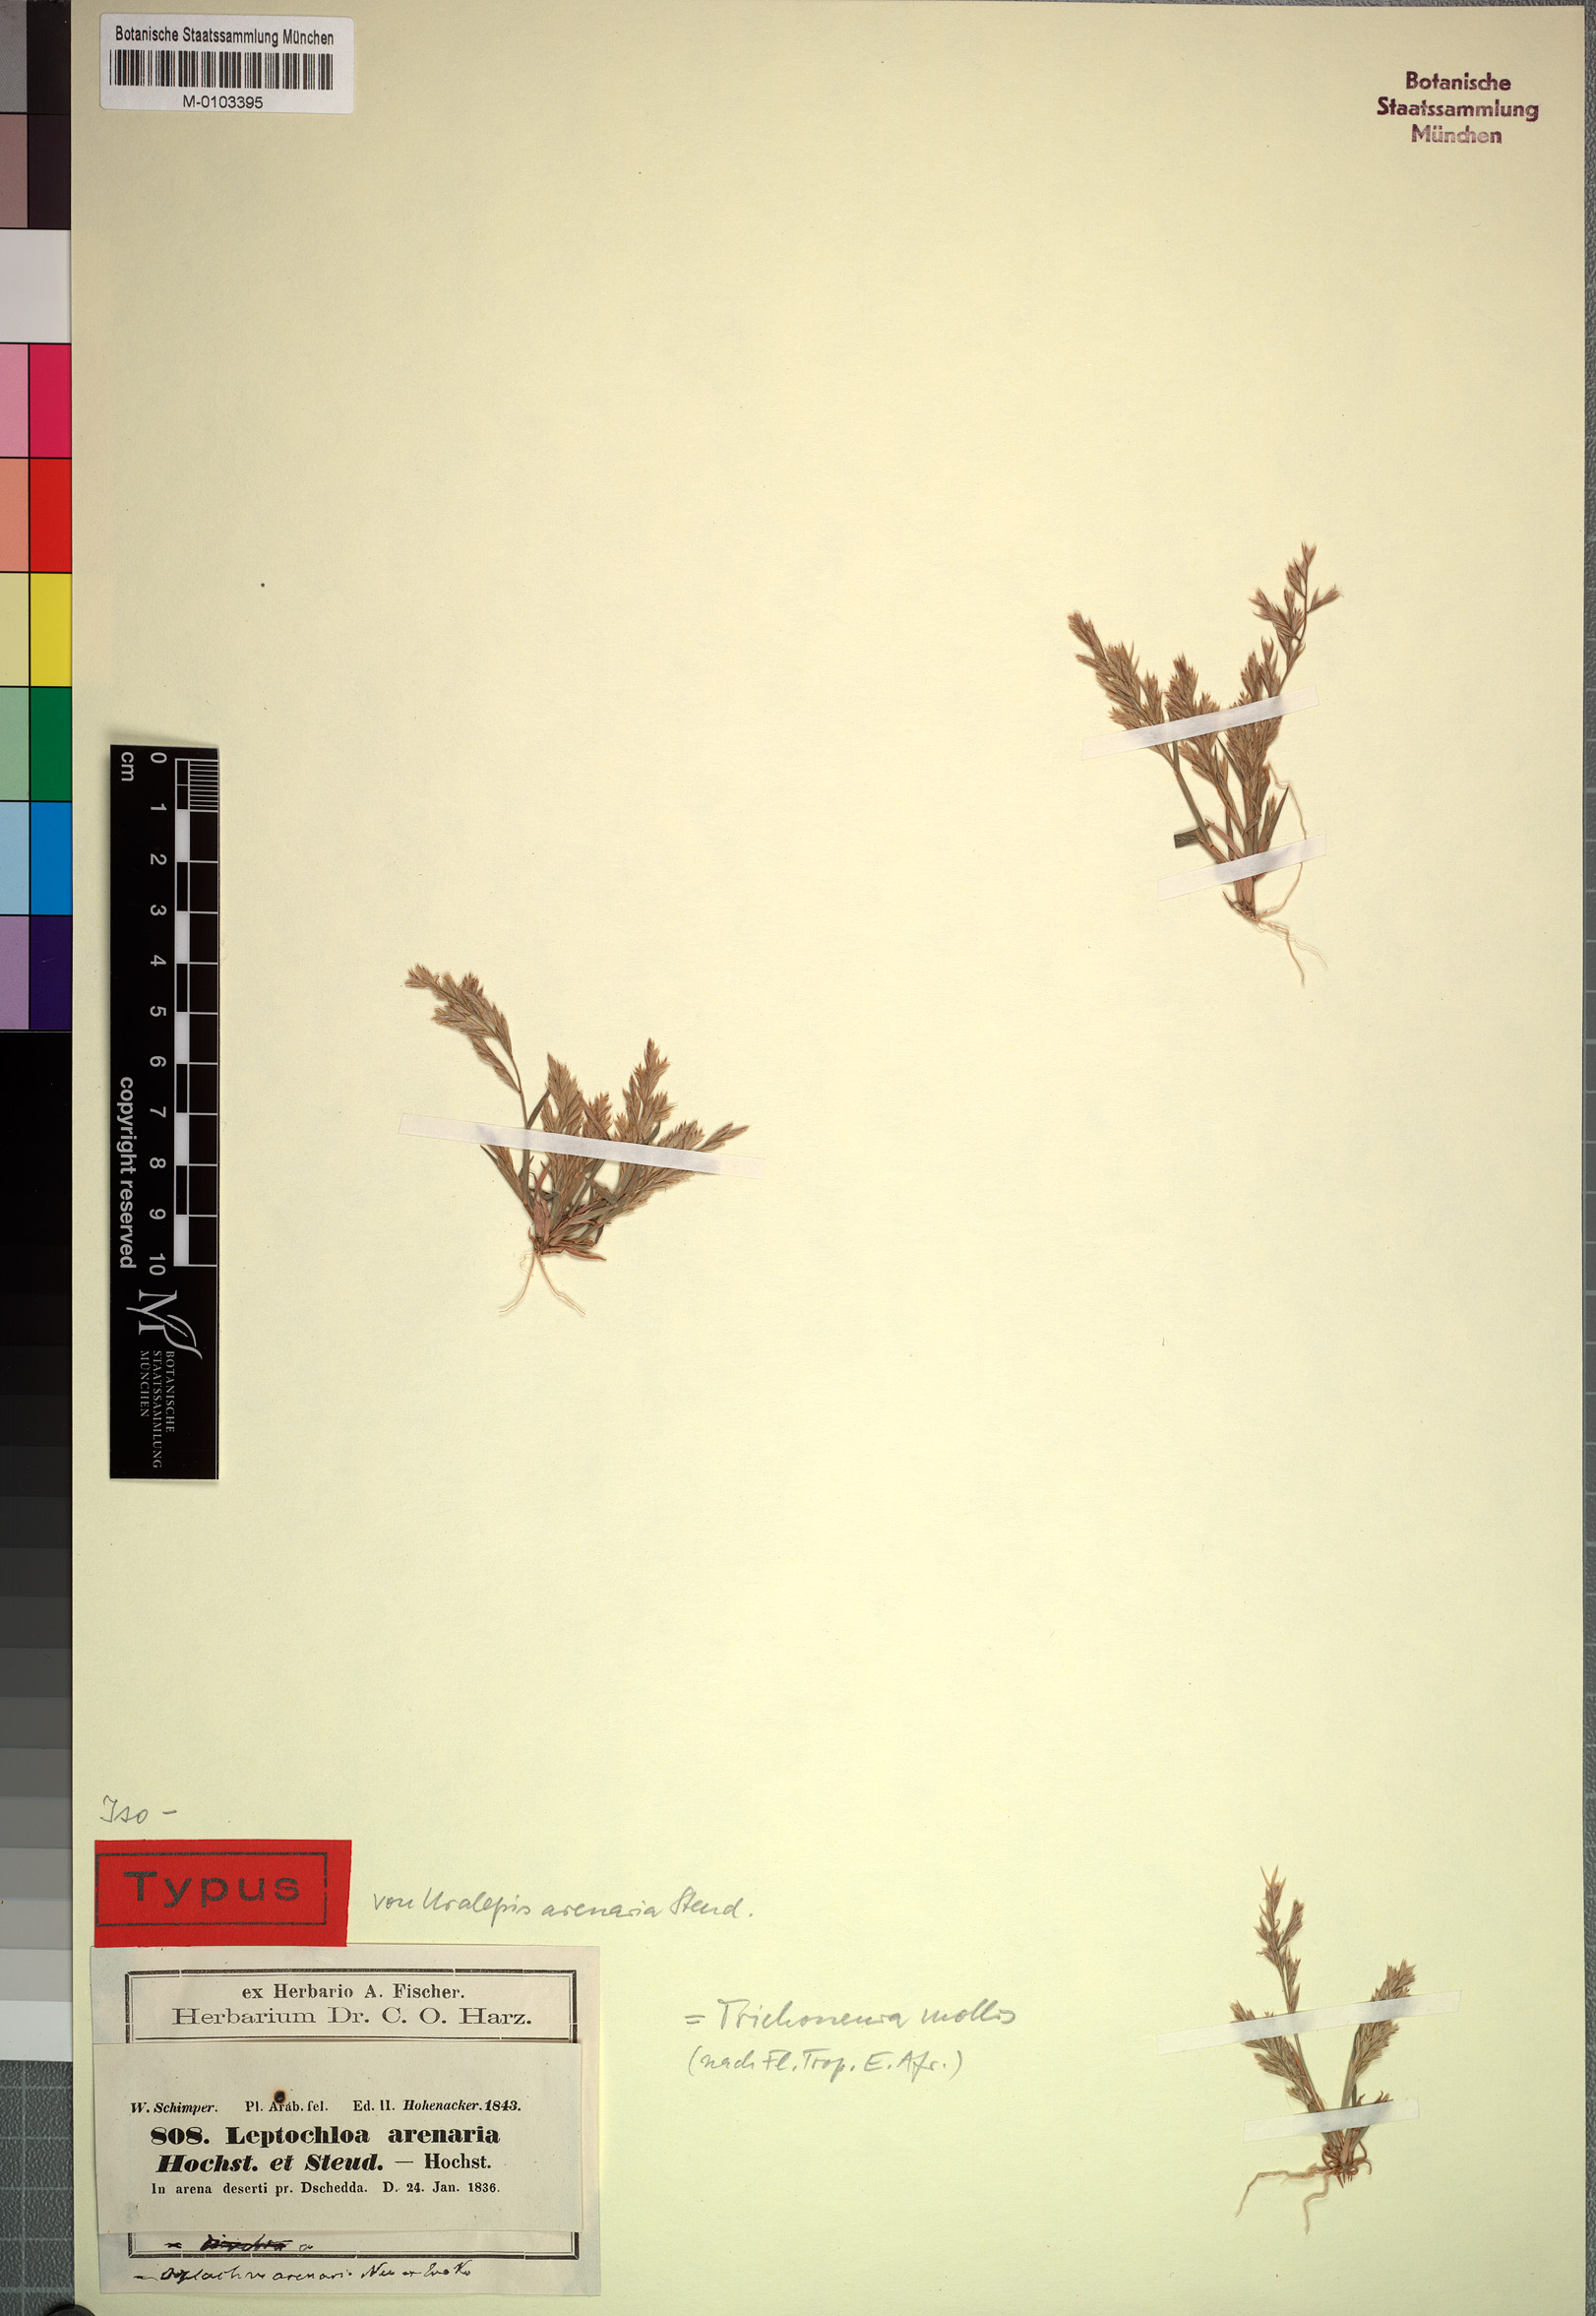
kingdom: Plantae
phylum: Tracheophyta
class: Liliopsida
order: Poales
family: Poaceae
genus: Trichoneura
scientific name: Trichoneura mollis
